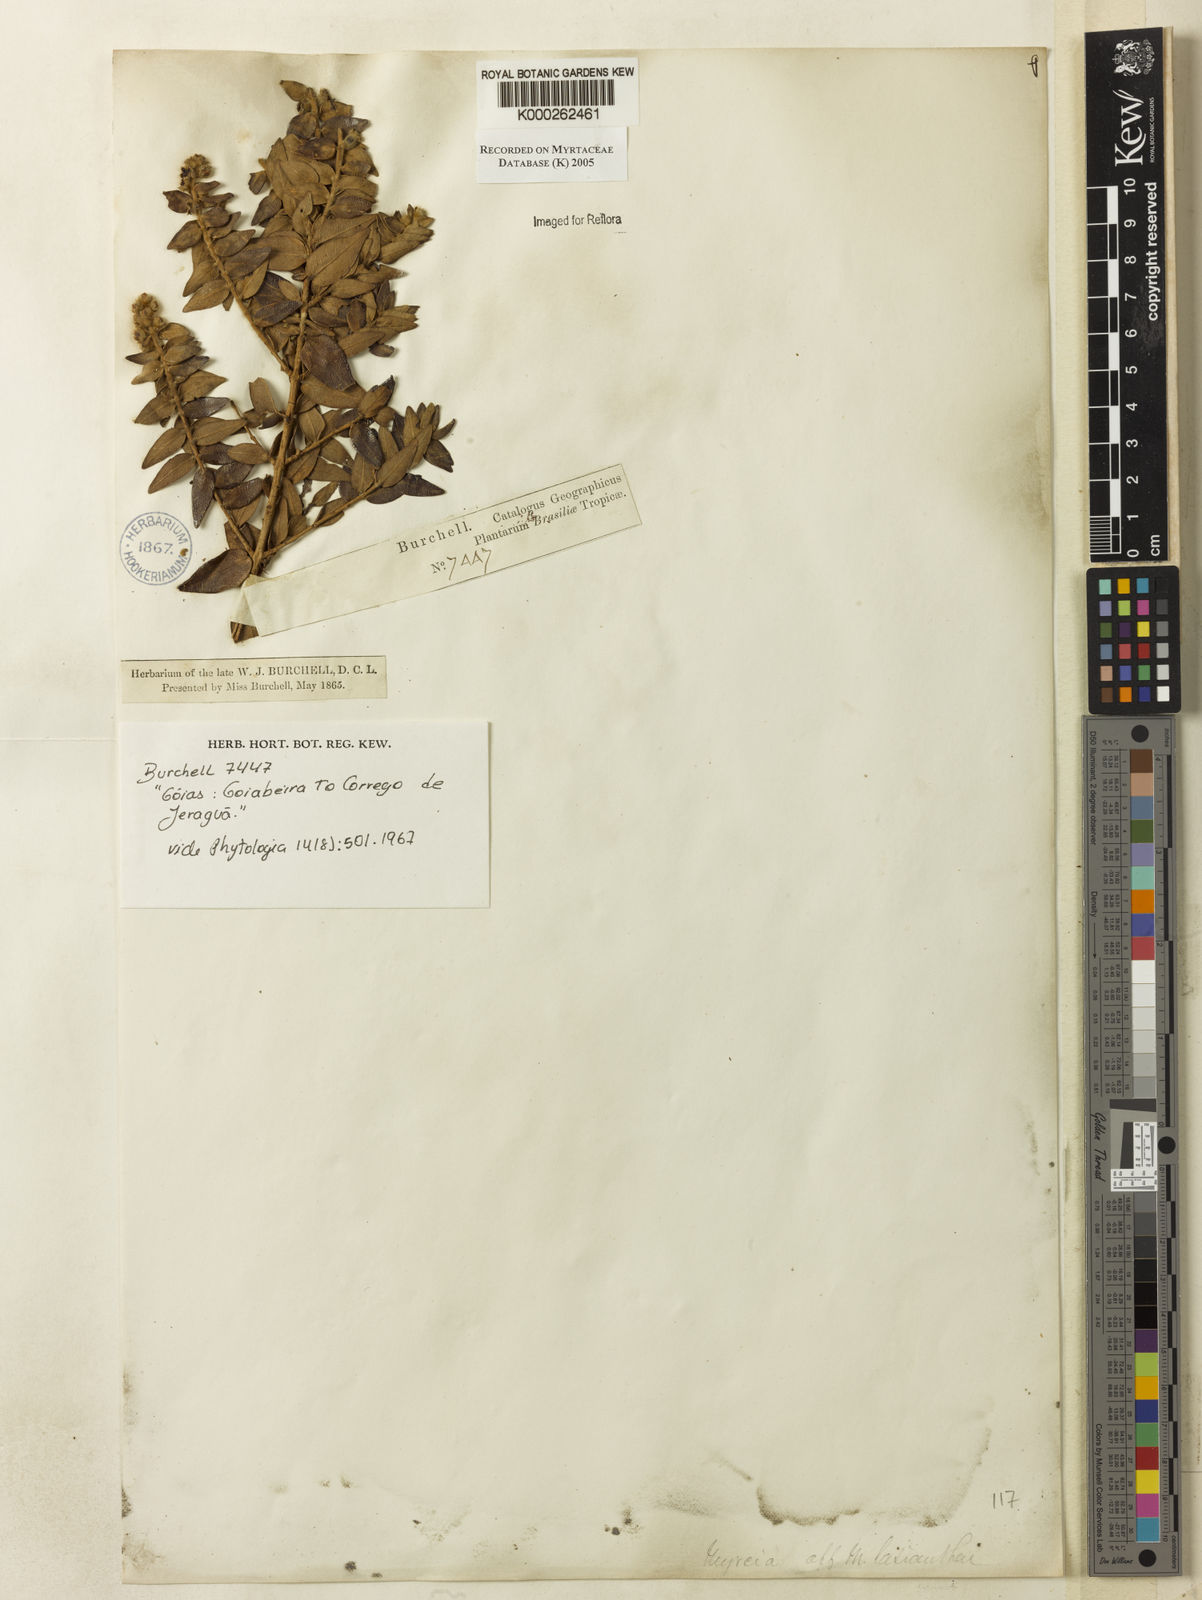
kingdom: Plantae
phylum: Tracheophyta
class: Magnoliopsida
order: Myrtales
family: Myrtaceae
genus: Myrcia
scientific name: Myrcia lasiantha
